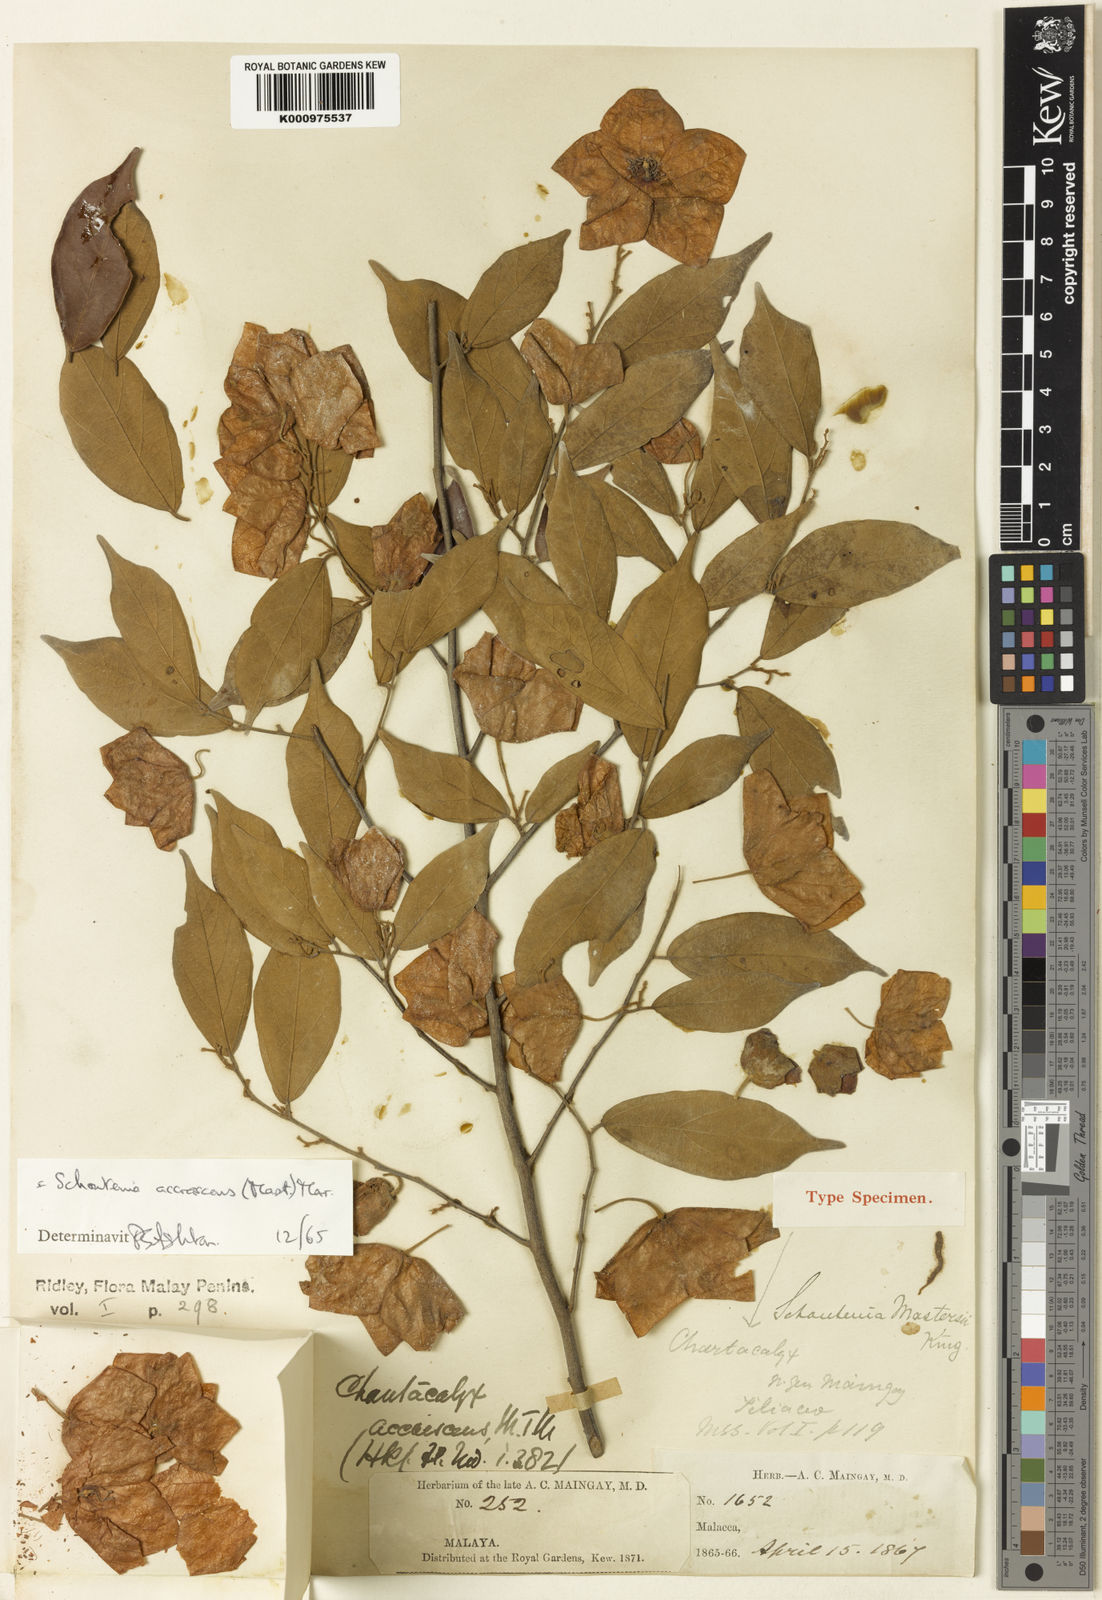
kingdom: Plantae
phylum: Tracheophyta
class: Magnoliopsida
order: Malvales
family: Malvaceae
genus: Schoutenia
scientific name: Schoutenia accrescens
